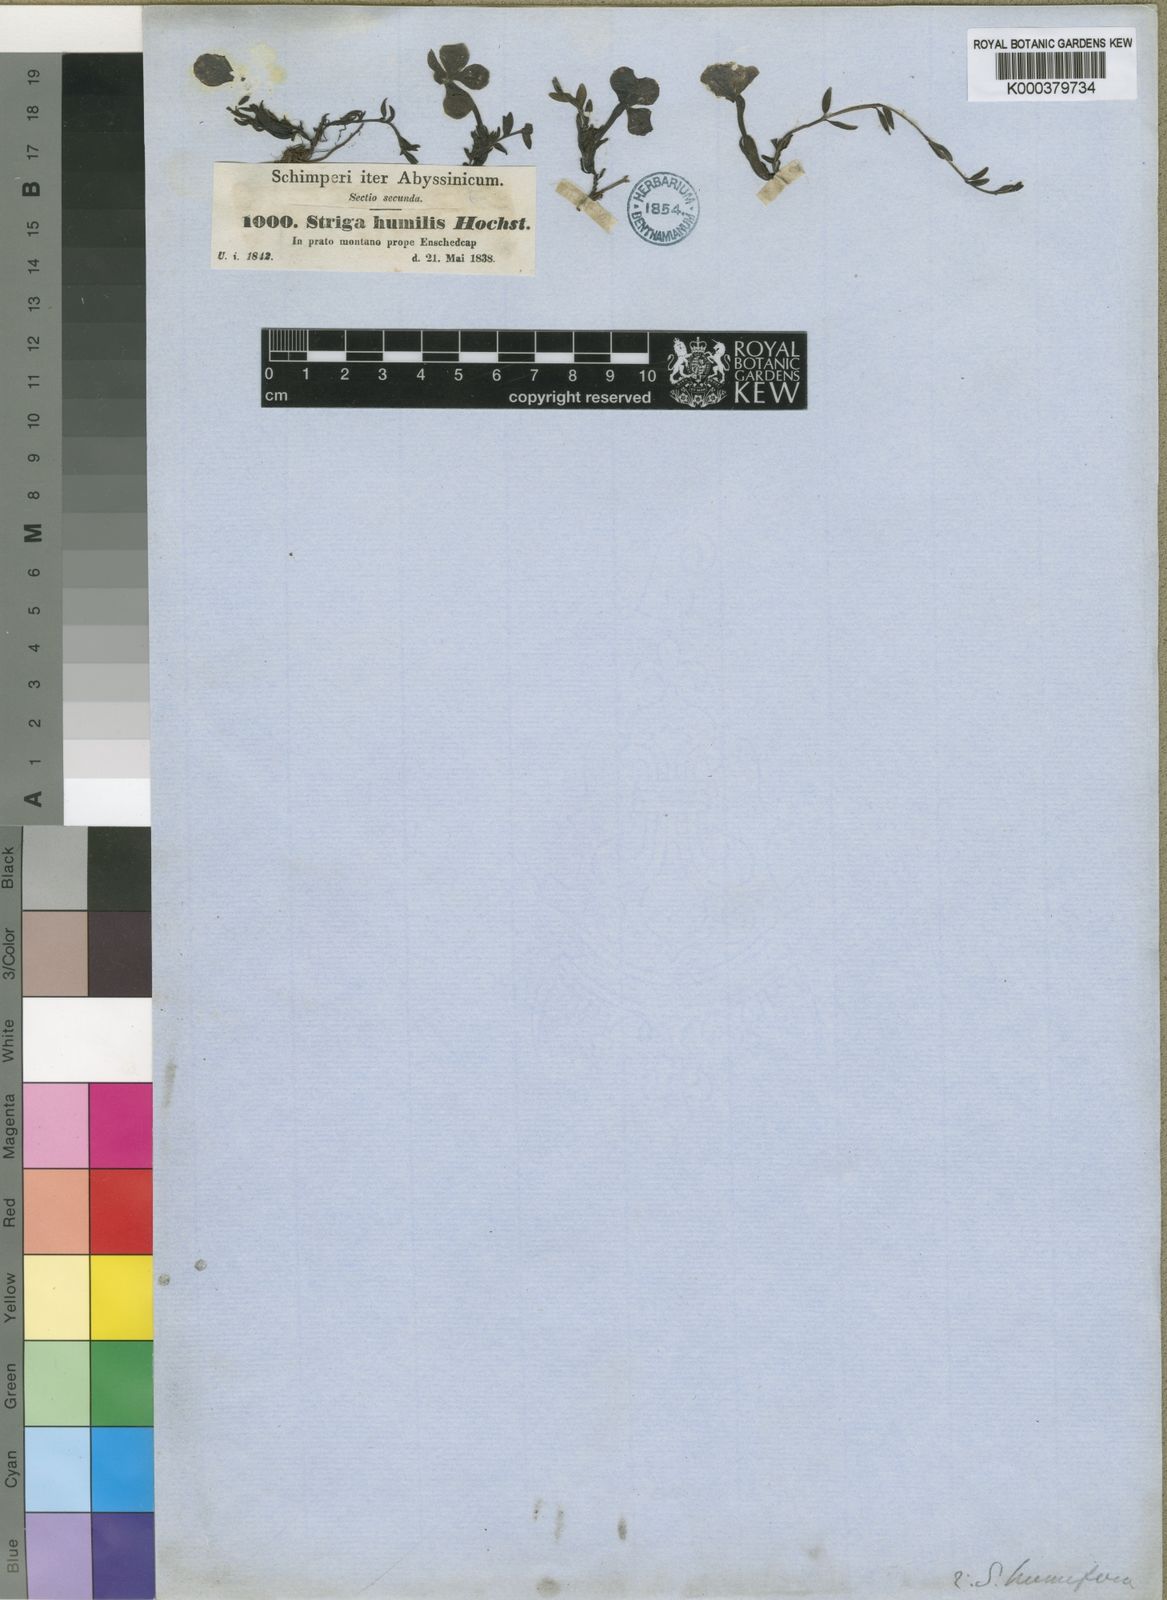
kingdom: Plantae
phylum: Tracheophyta
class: Magnoliopsida
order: Lamiales
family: Orobanchaceae
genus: Cycniopsis
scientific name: Cycniopsis
